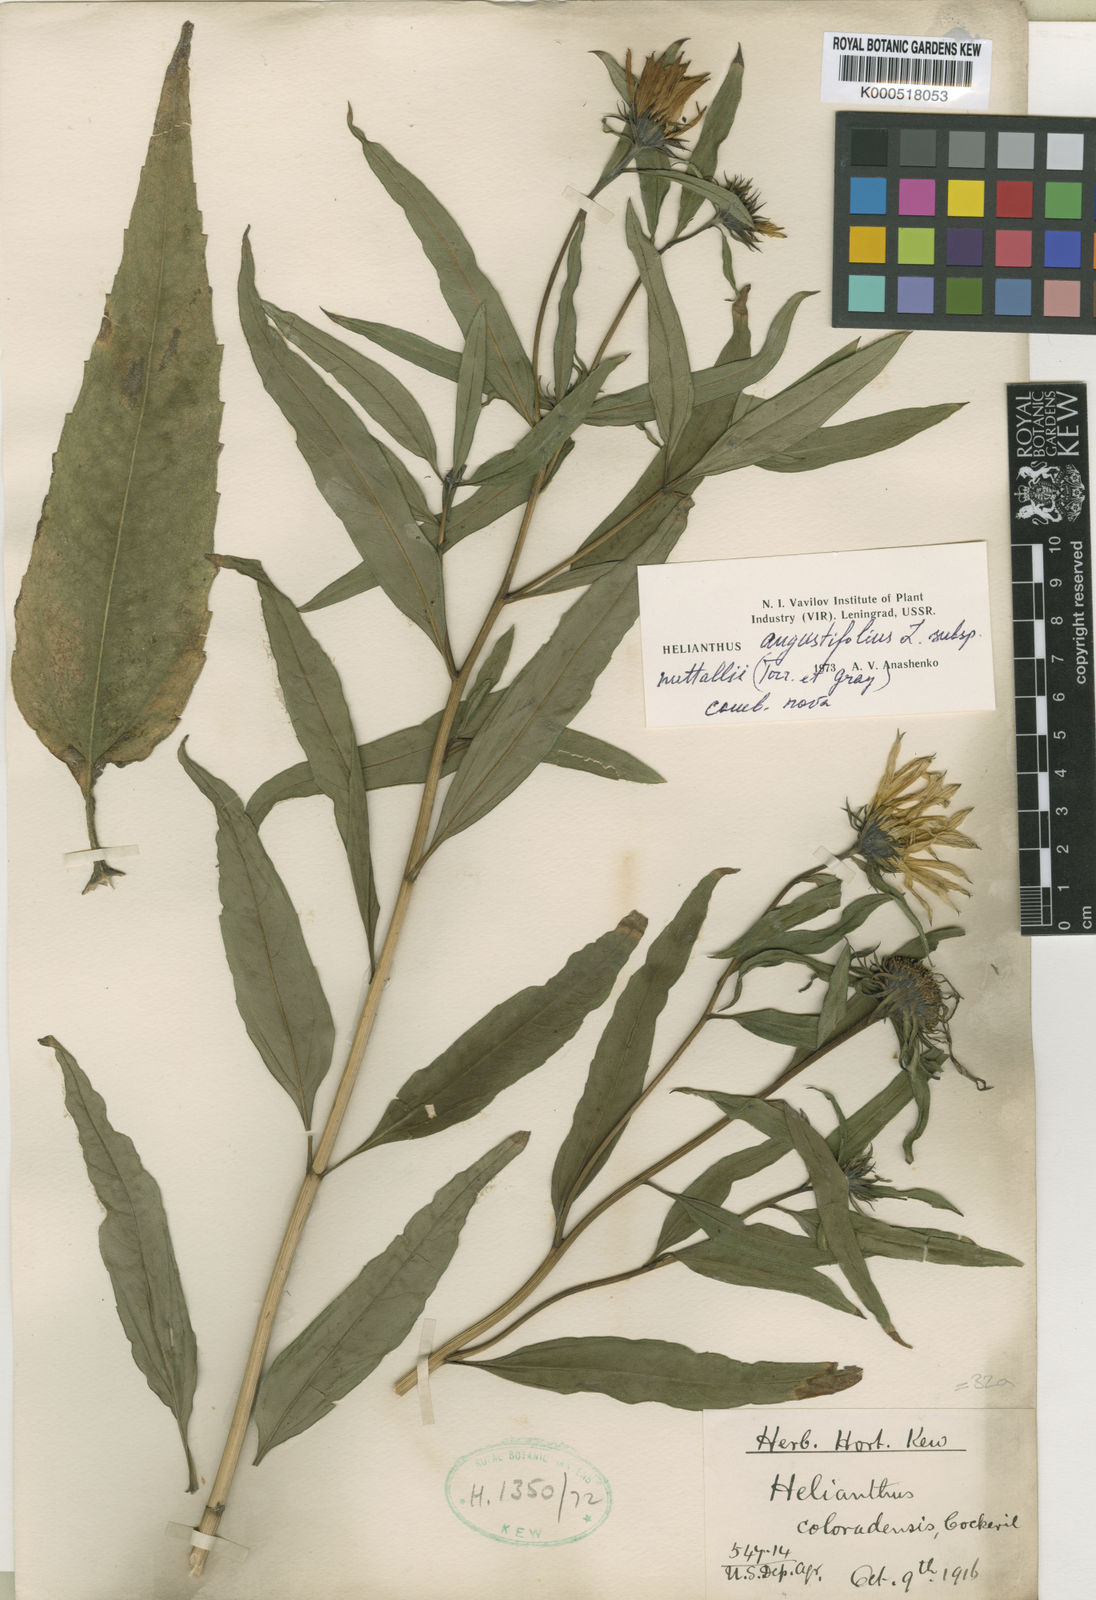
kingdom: Plantae
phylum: Tracheophyta
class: Magnoliopsida
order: Asterales
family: Asteraceae
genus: Helianthus
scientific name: Helianthus nuttallii
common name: Nuttall's sunflower
